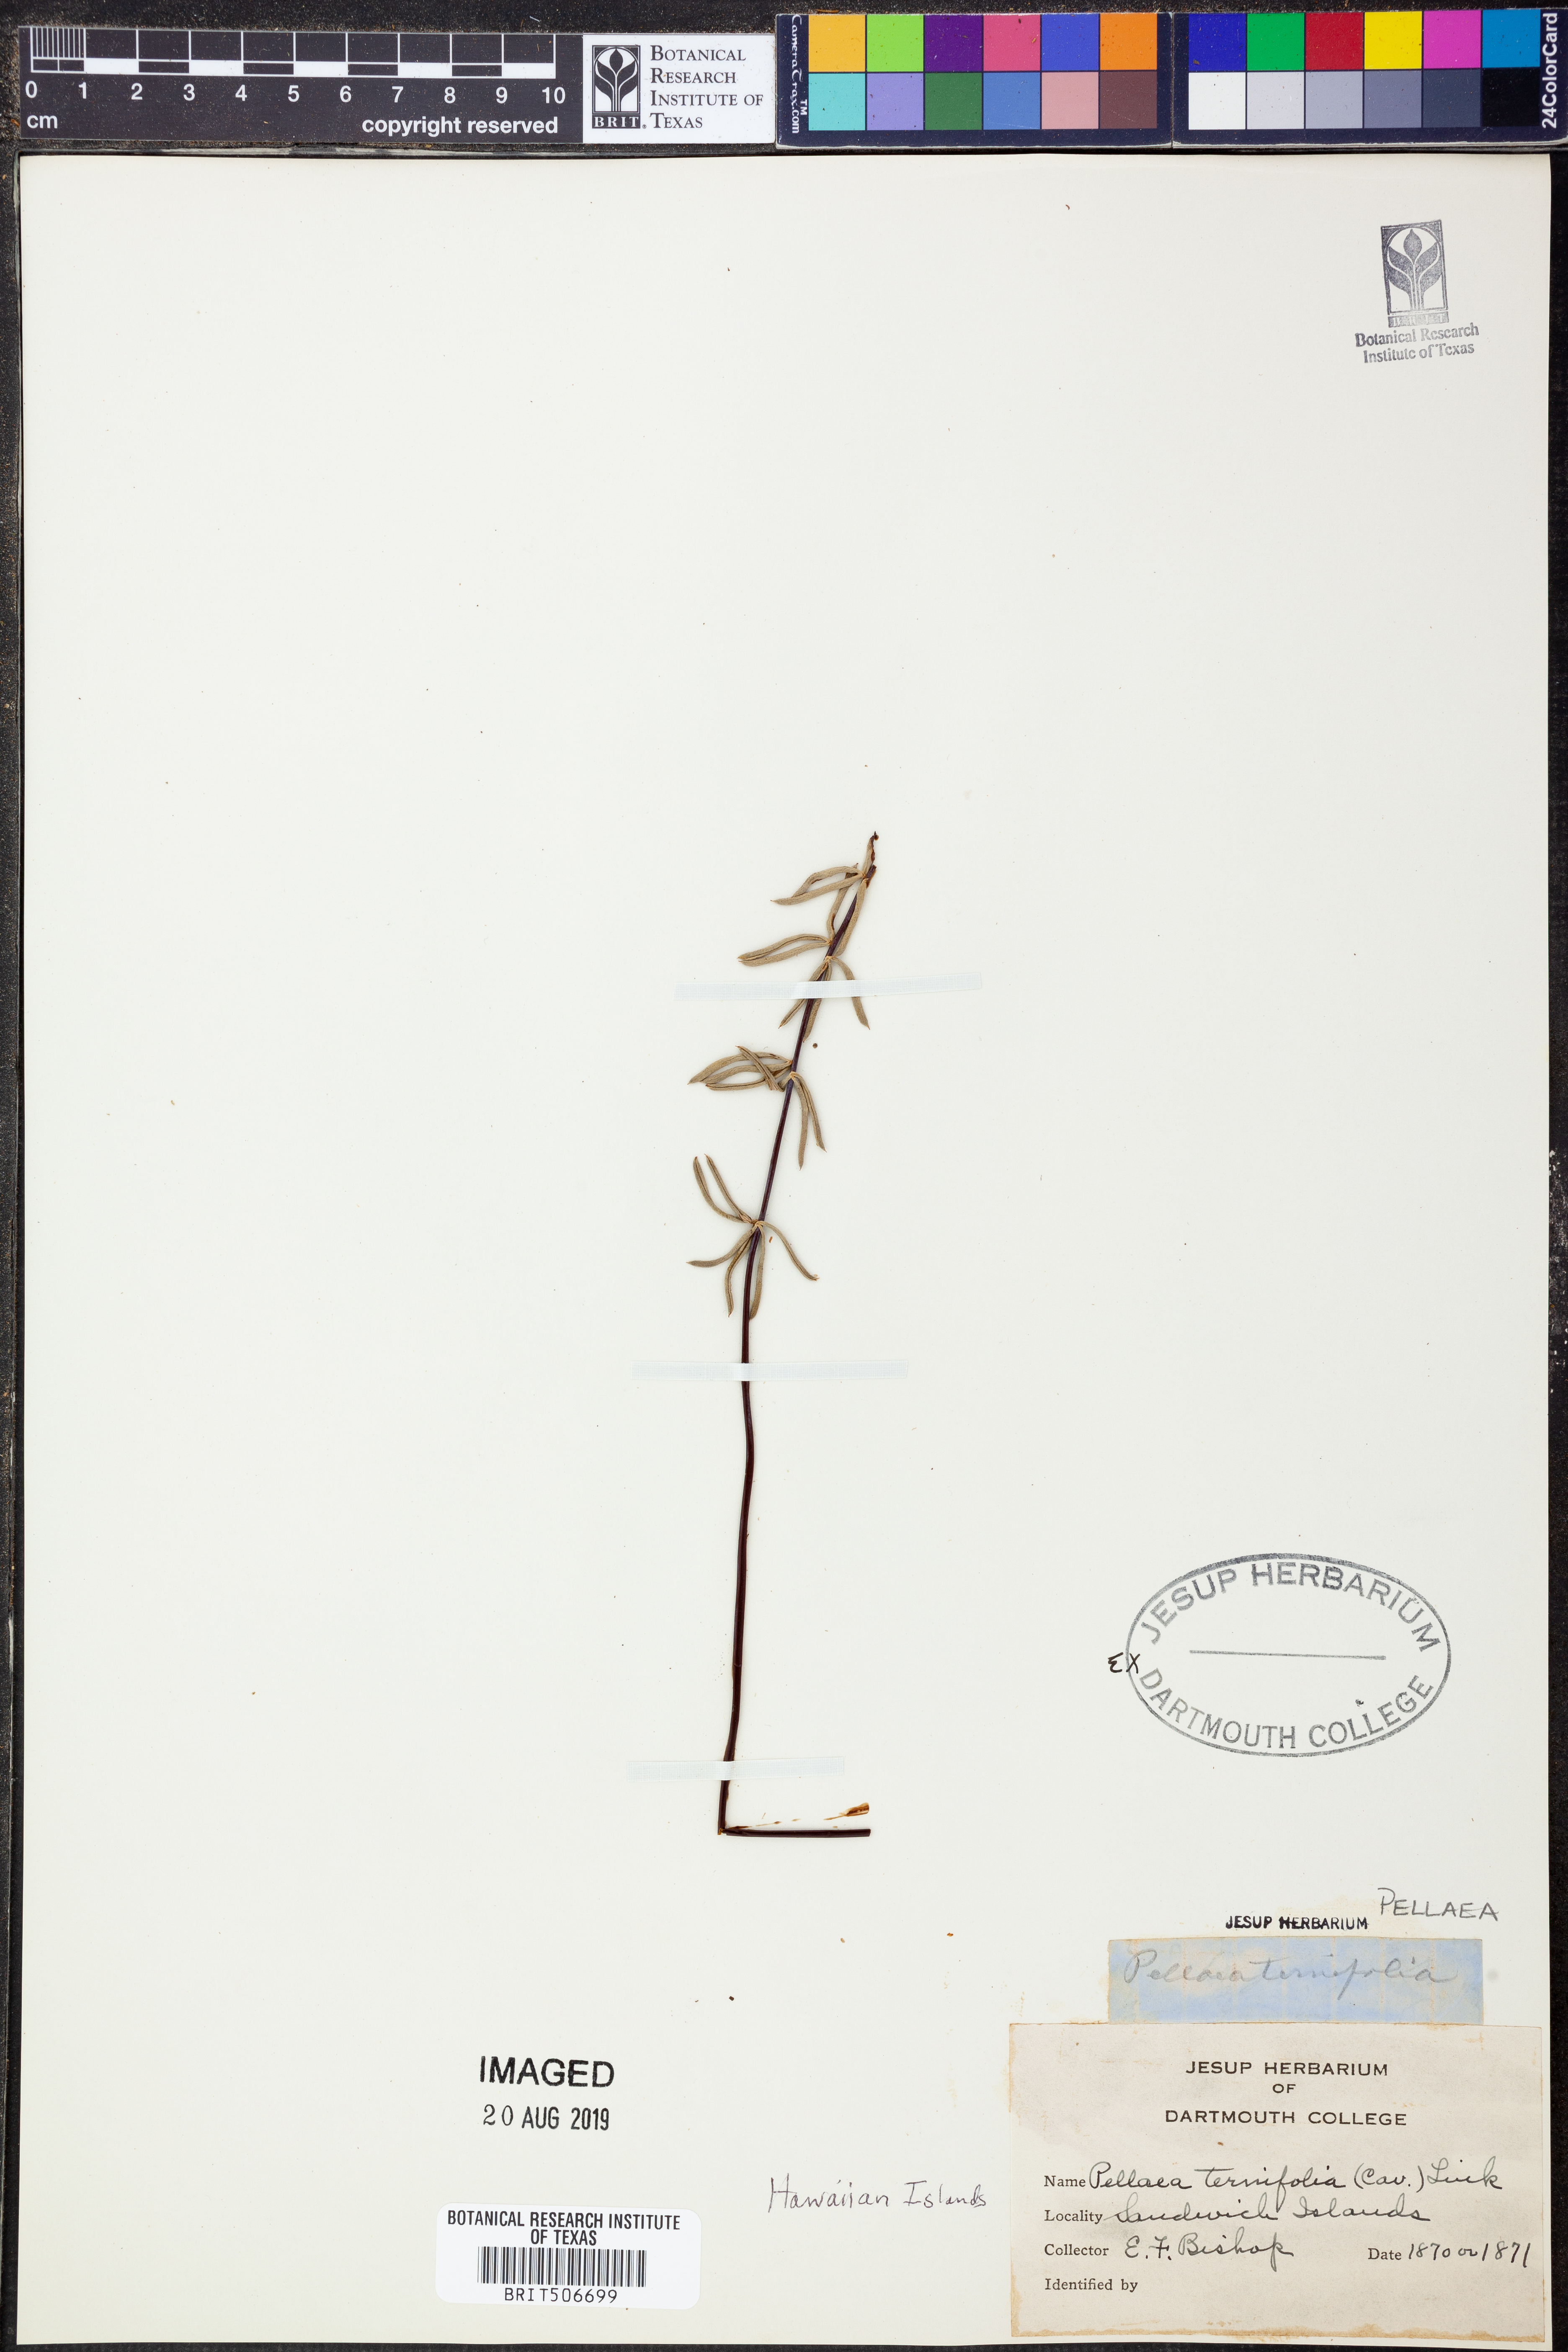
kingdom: Plantae
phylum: Tracheophyta
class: Polypodiopsida
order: Polypodiales
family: Pteridaceae
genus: Pellaea
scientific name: Pellaea ternifolia
